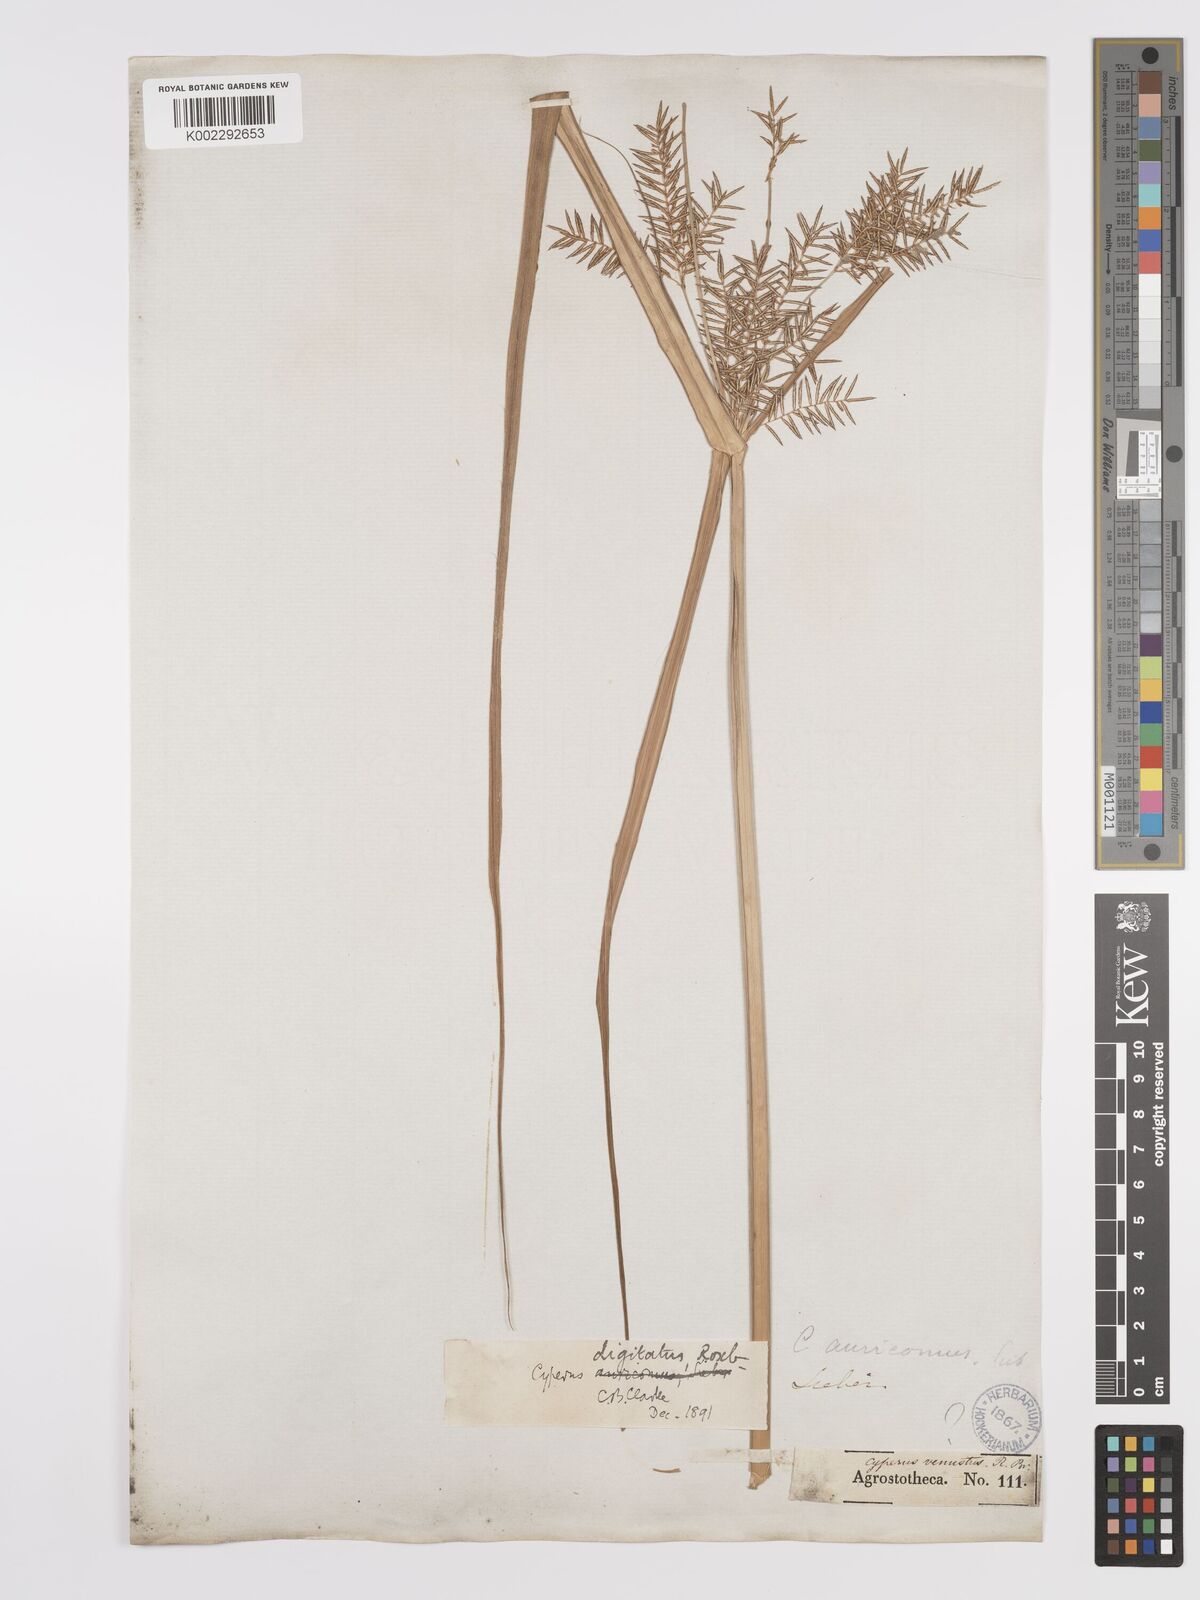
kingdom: Plantae
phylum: Tracheophyta
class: Liliopsida
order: Poales
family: Cyperaceae
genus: Cyperus
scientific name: Cyperus digitatus
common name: Finger flatsedge
